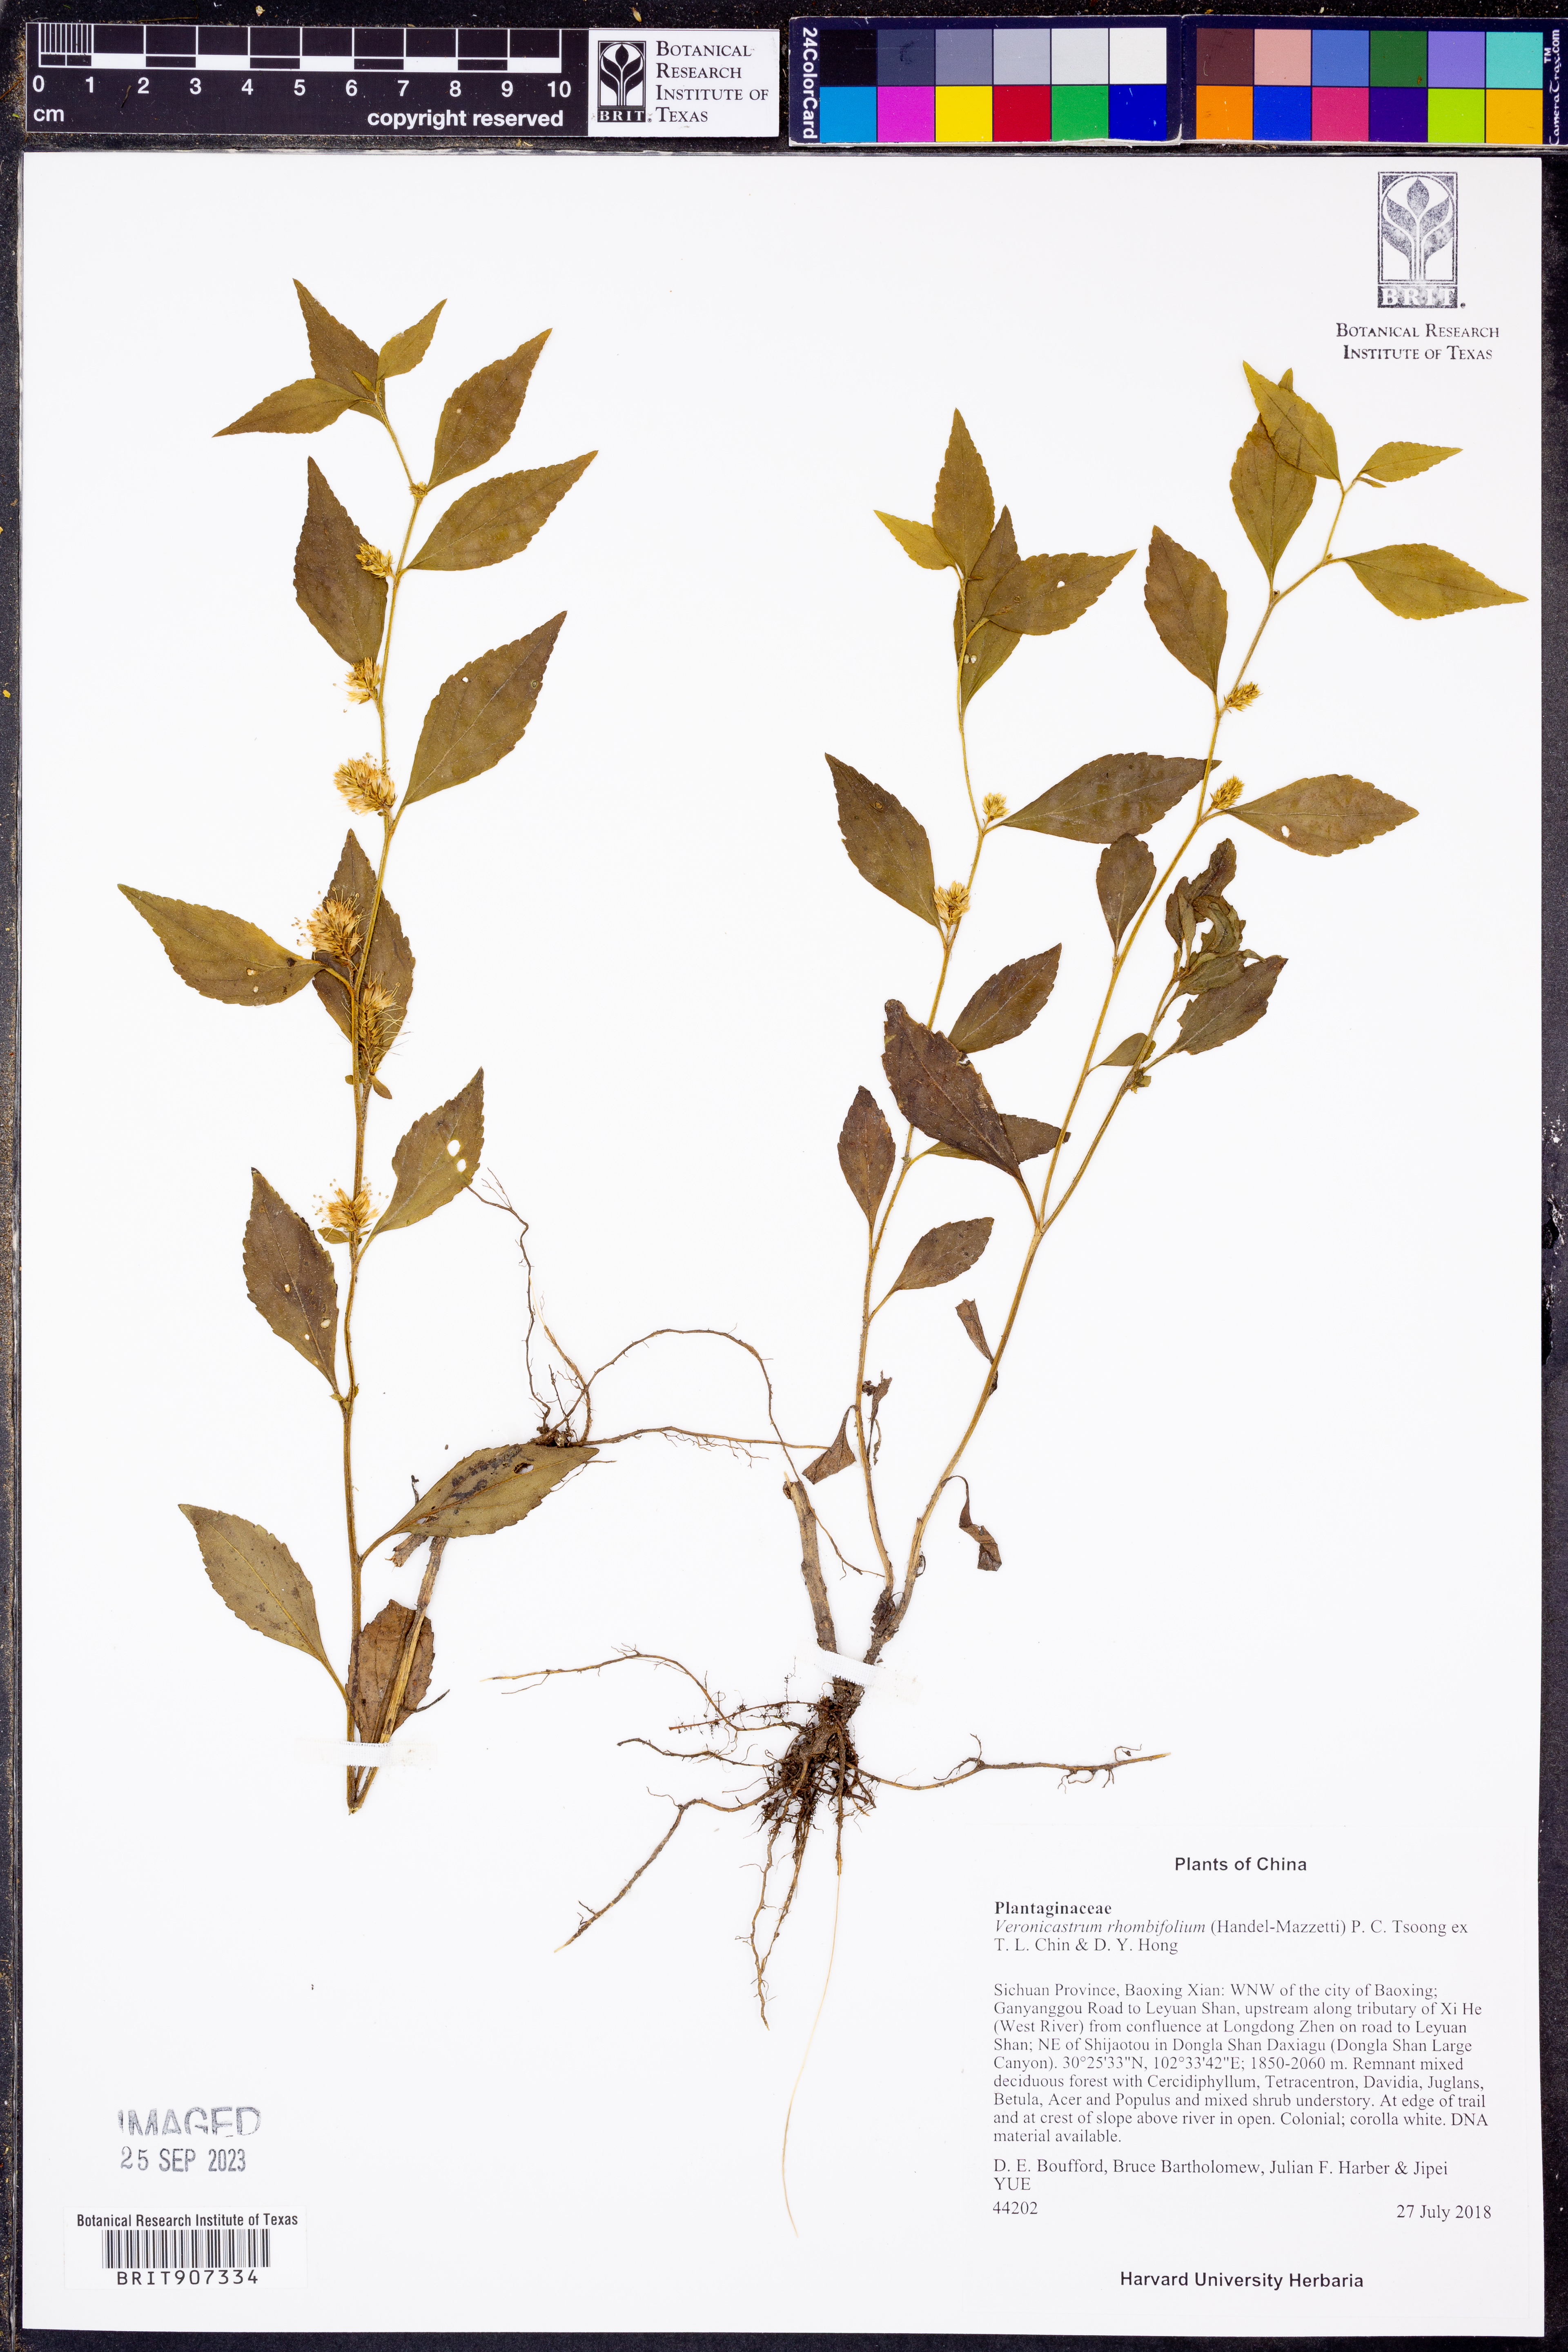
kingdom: Plantae
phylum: Tracheophyta
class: Magnoliopsida
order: Lamiales
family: Plantaginaceae
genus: Veronicastrum
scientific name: Veronicastrum rhombifolium
